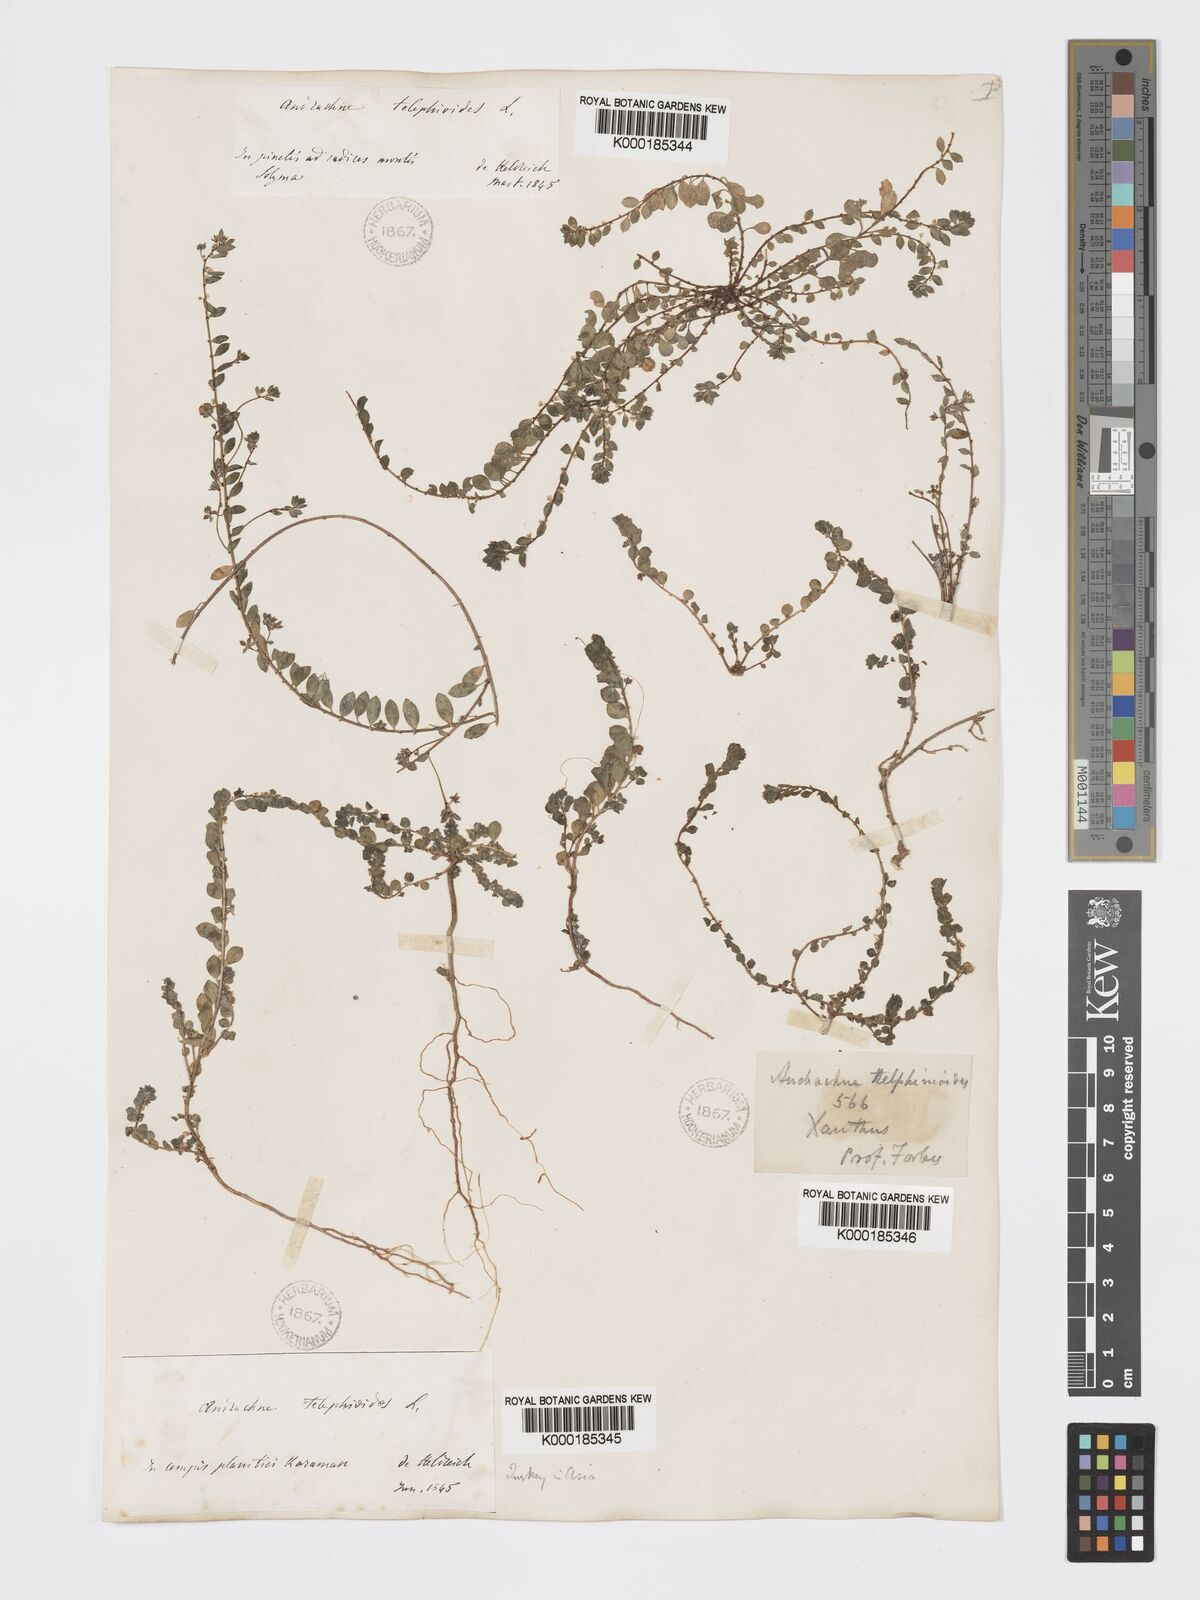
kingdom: Plantae
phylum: Tracheophyta
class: Magnoliopsida
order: Malpighiales
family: Phyllanthaceae
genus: Andrachne
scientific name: Andrachne telephioides
